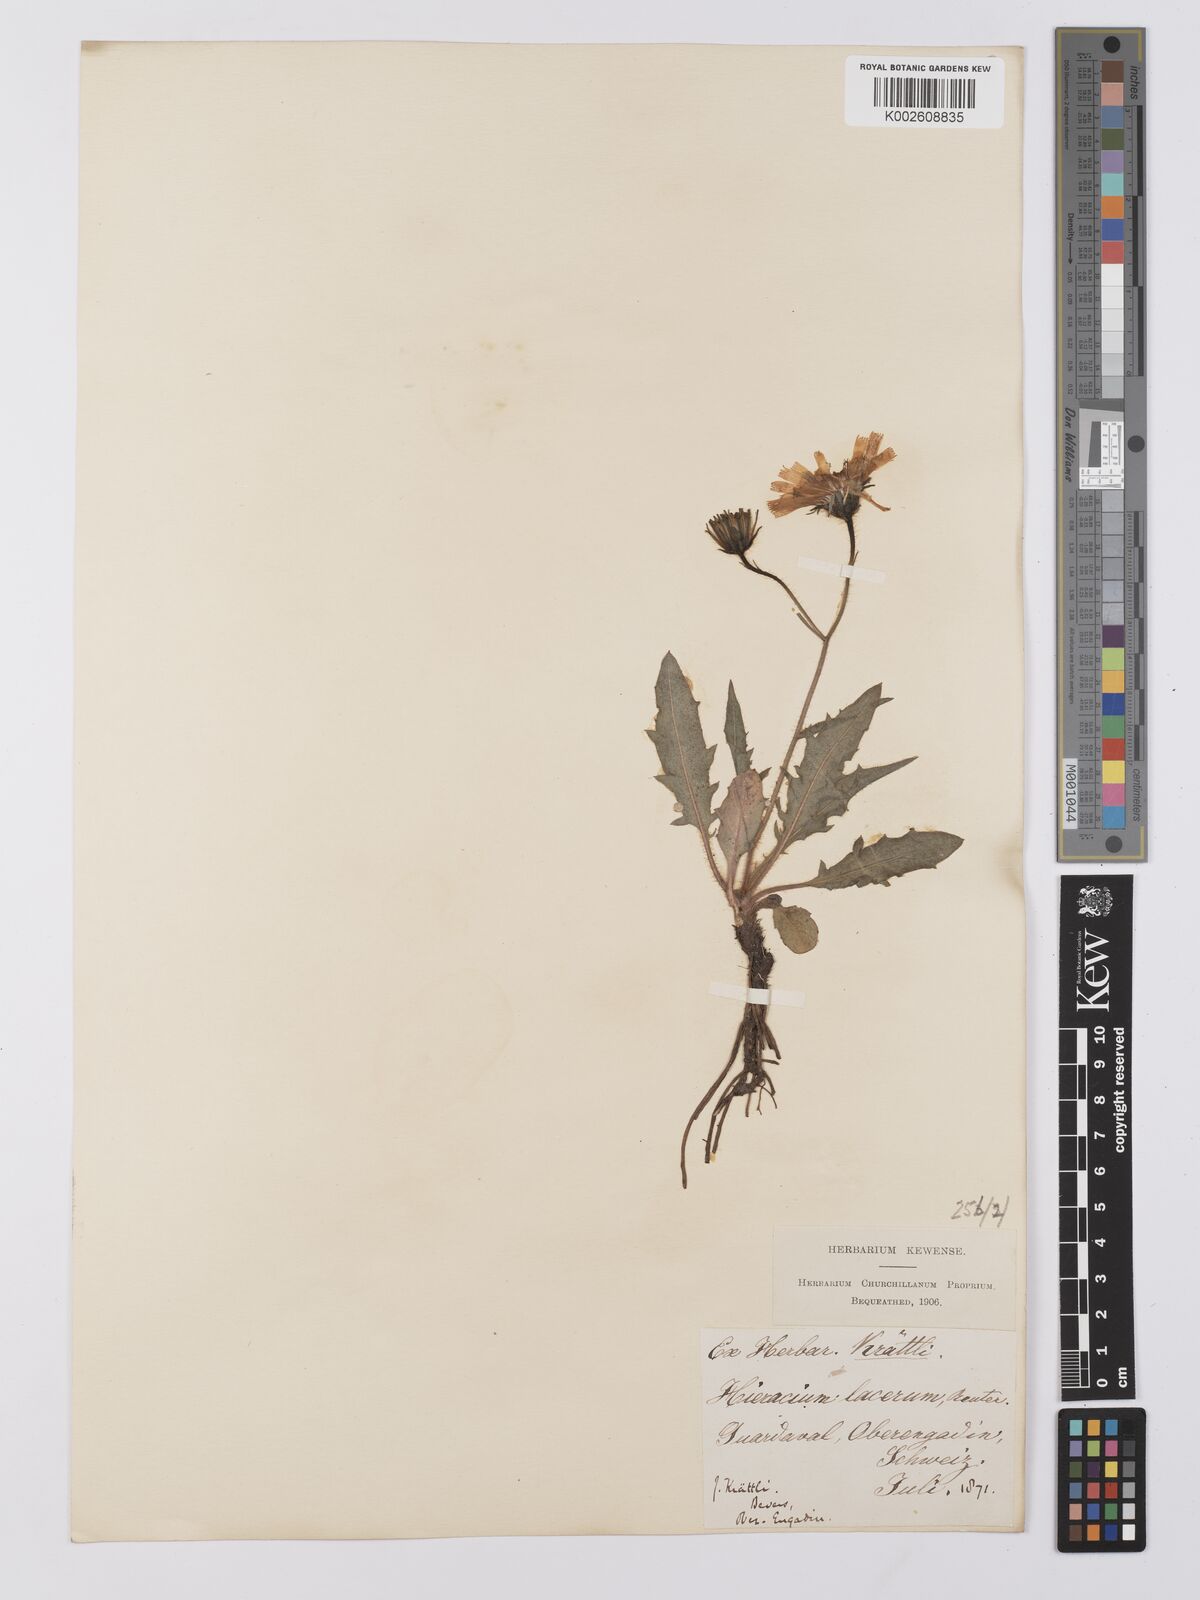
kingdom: Plantae
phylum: Tracheophyta
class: Magnoliopsida
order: Asterales
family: Asteraceae
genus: Hieracium
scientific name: Hieracium cottetii
